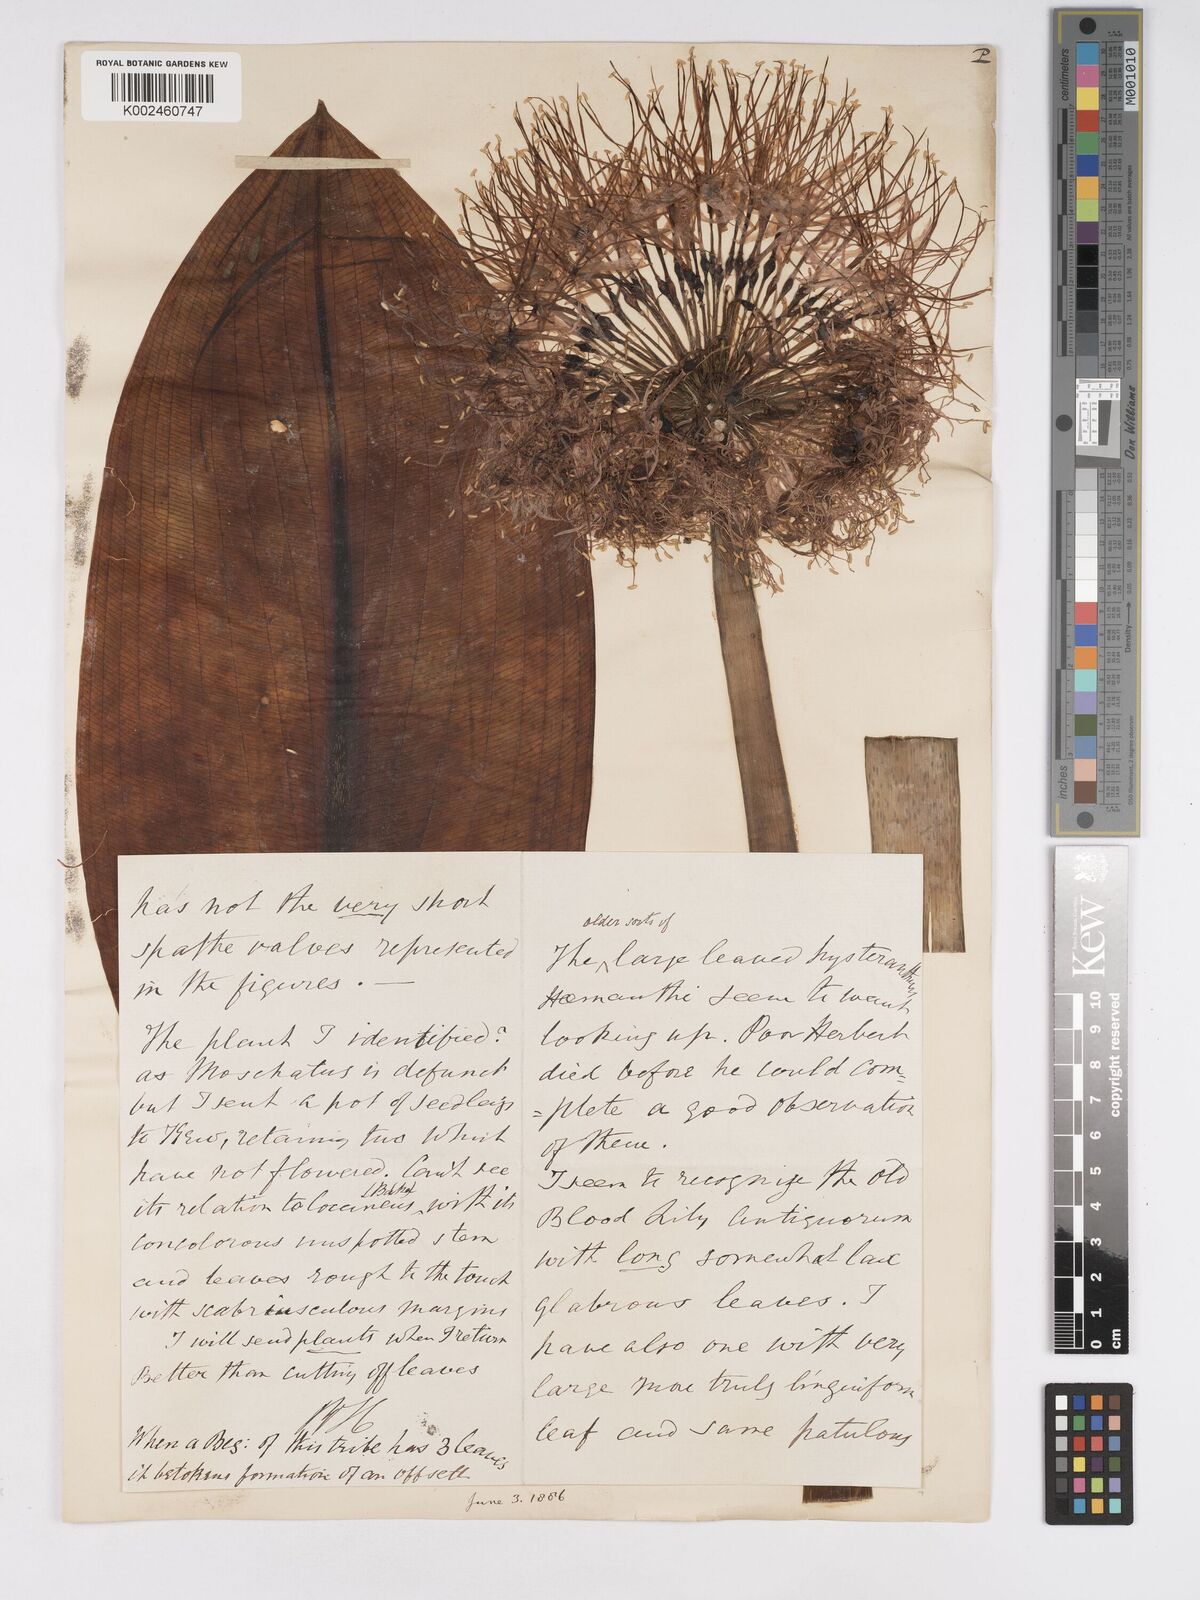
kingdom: Plantae
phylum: Tracheophyta
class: Liliopsida
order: Asparagales
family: Amaryllidaceae
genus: Scadoxus
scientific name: Scadoxus multiflorus
